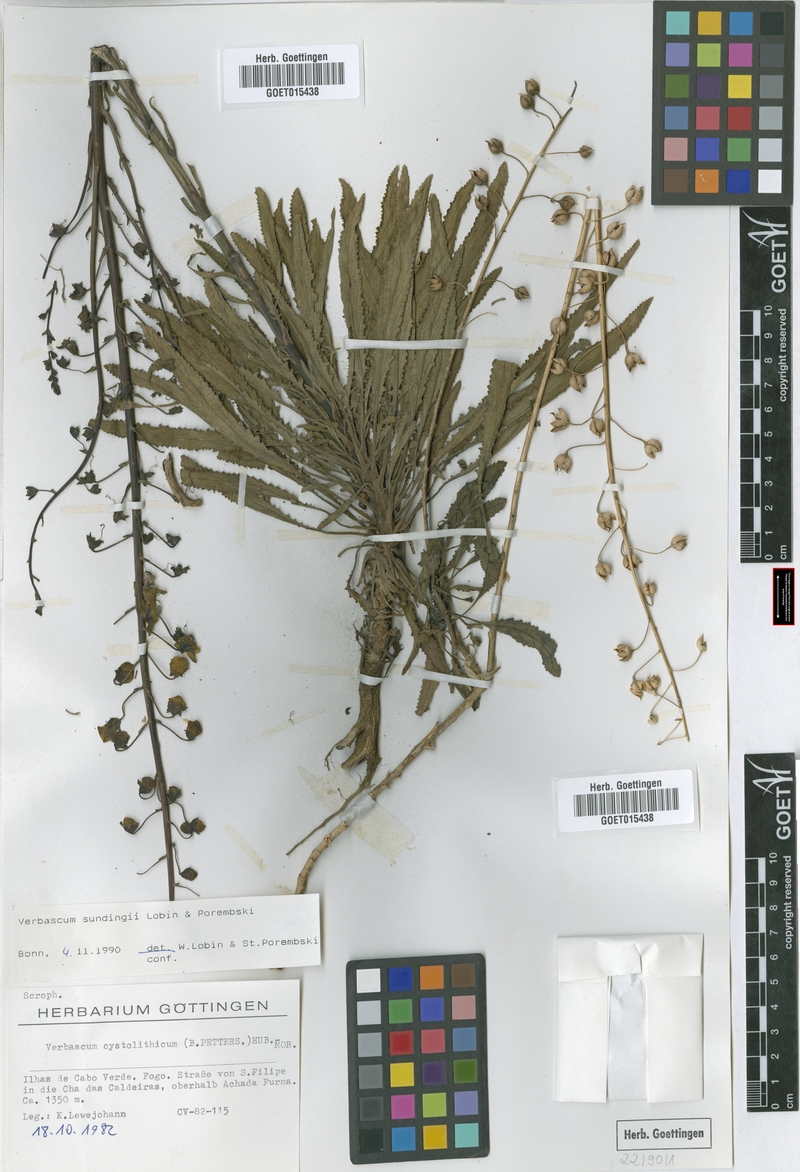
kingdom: Plantae
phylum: Tracheophyta
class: Magnoliopsida
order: Lamiales
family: Scrophulariaceae
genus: Verbascum
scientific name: Verbascum cystolithicum
